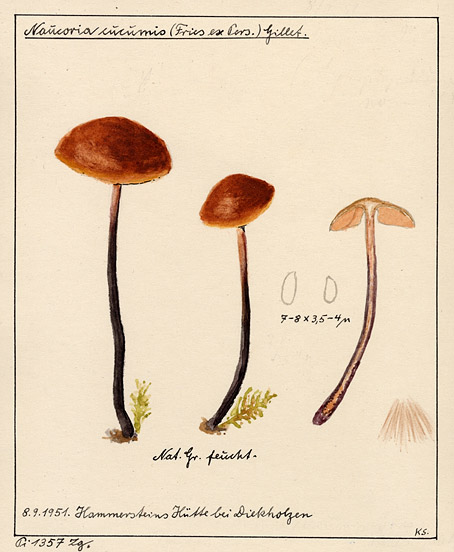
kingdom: Fungi
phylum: Basidiomycota
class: Agaricomycetes
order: Agaricales
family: Macrocystidiaceae
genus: Macrocystidia
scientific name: Macrocystidia cucumis
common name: Cucumber cap
